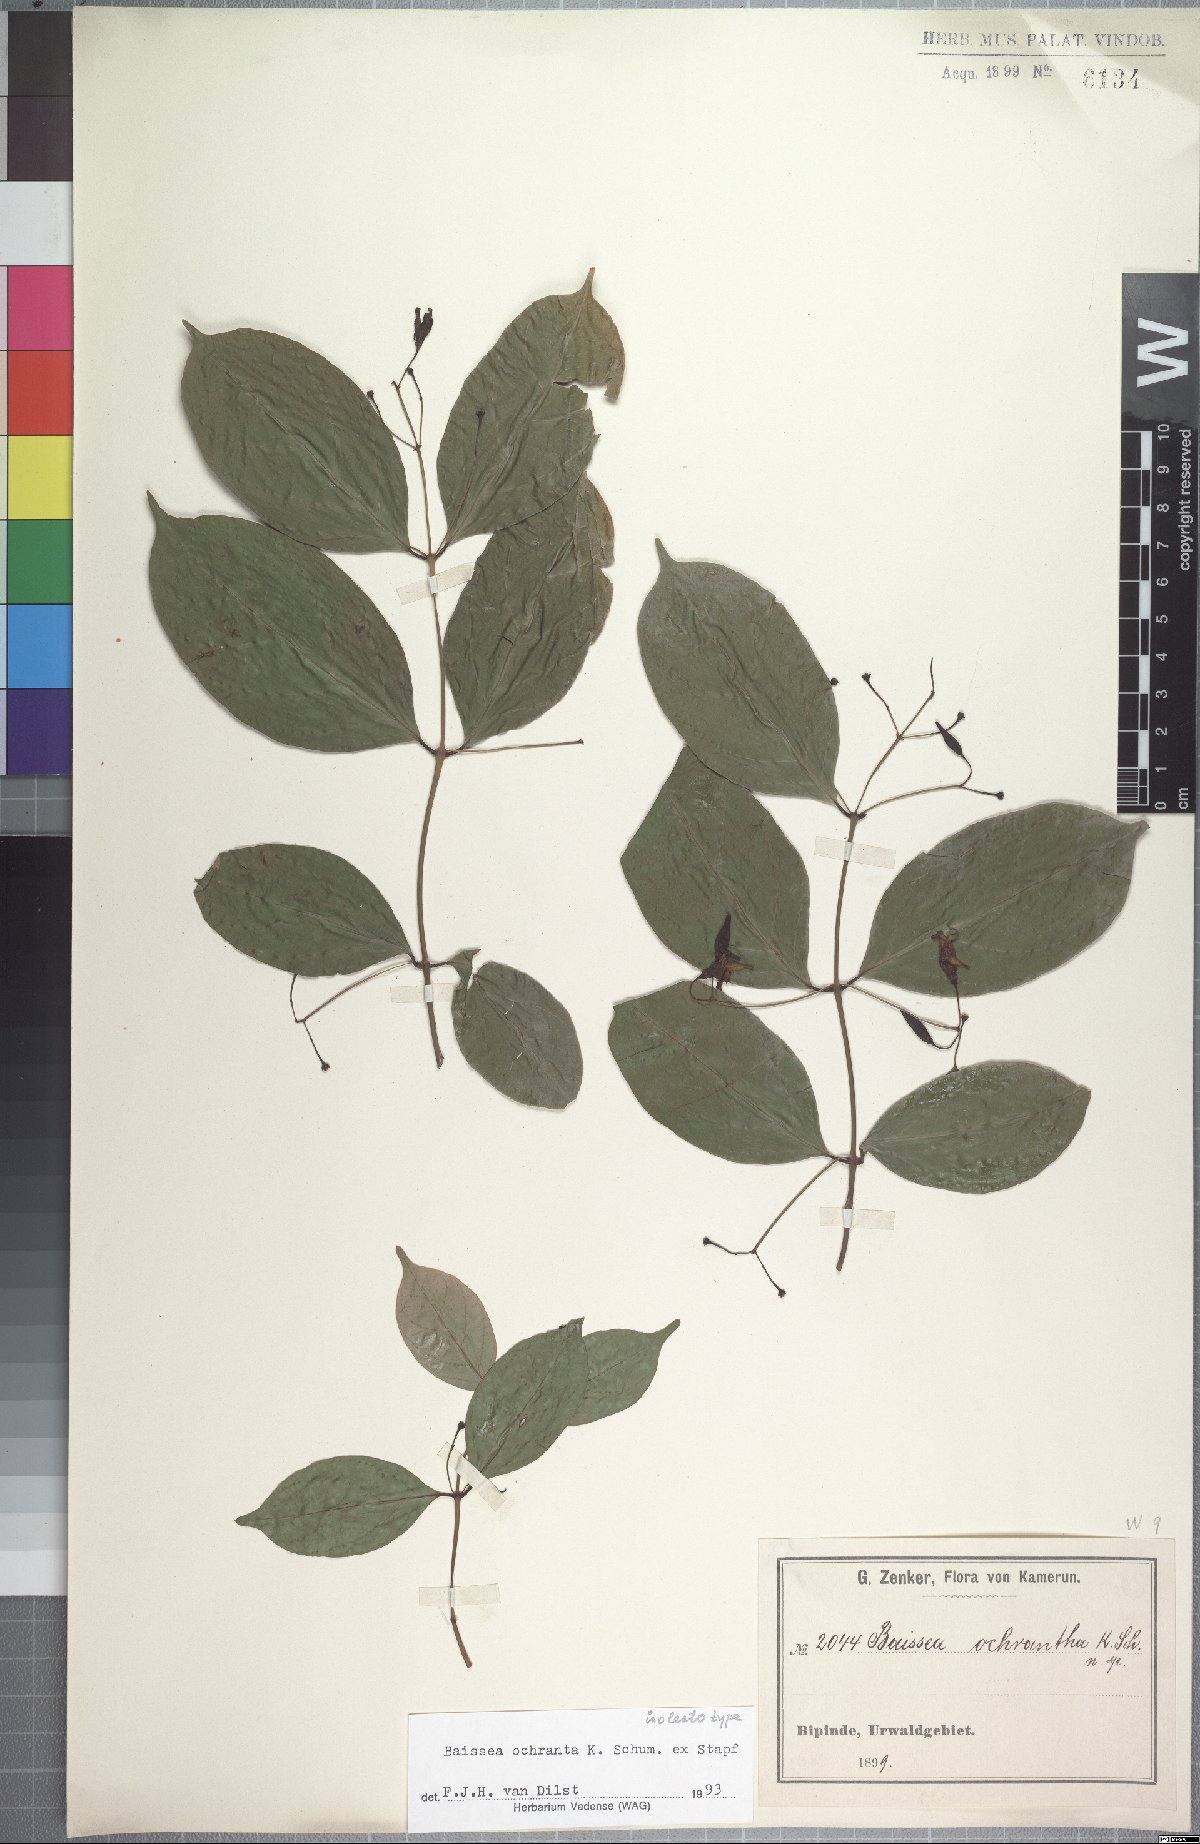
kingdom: Plantae
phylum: Tracheophyta
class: Magnoliopsida
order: Gentianales
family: Apocynaceae
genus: Baissea
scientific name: Baissea ochrantha
